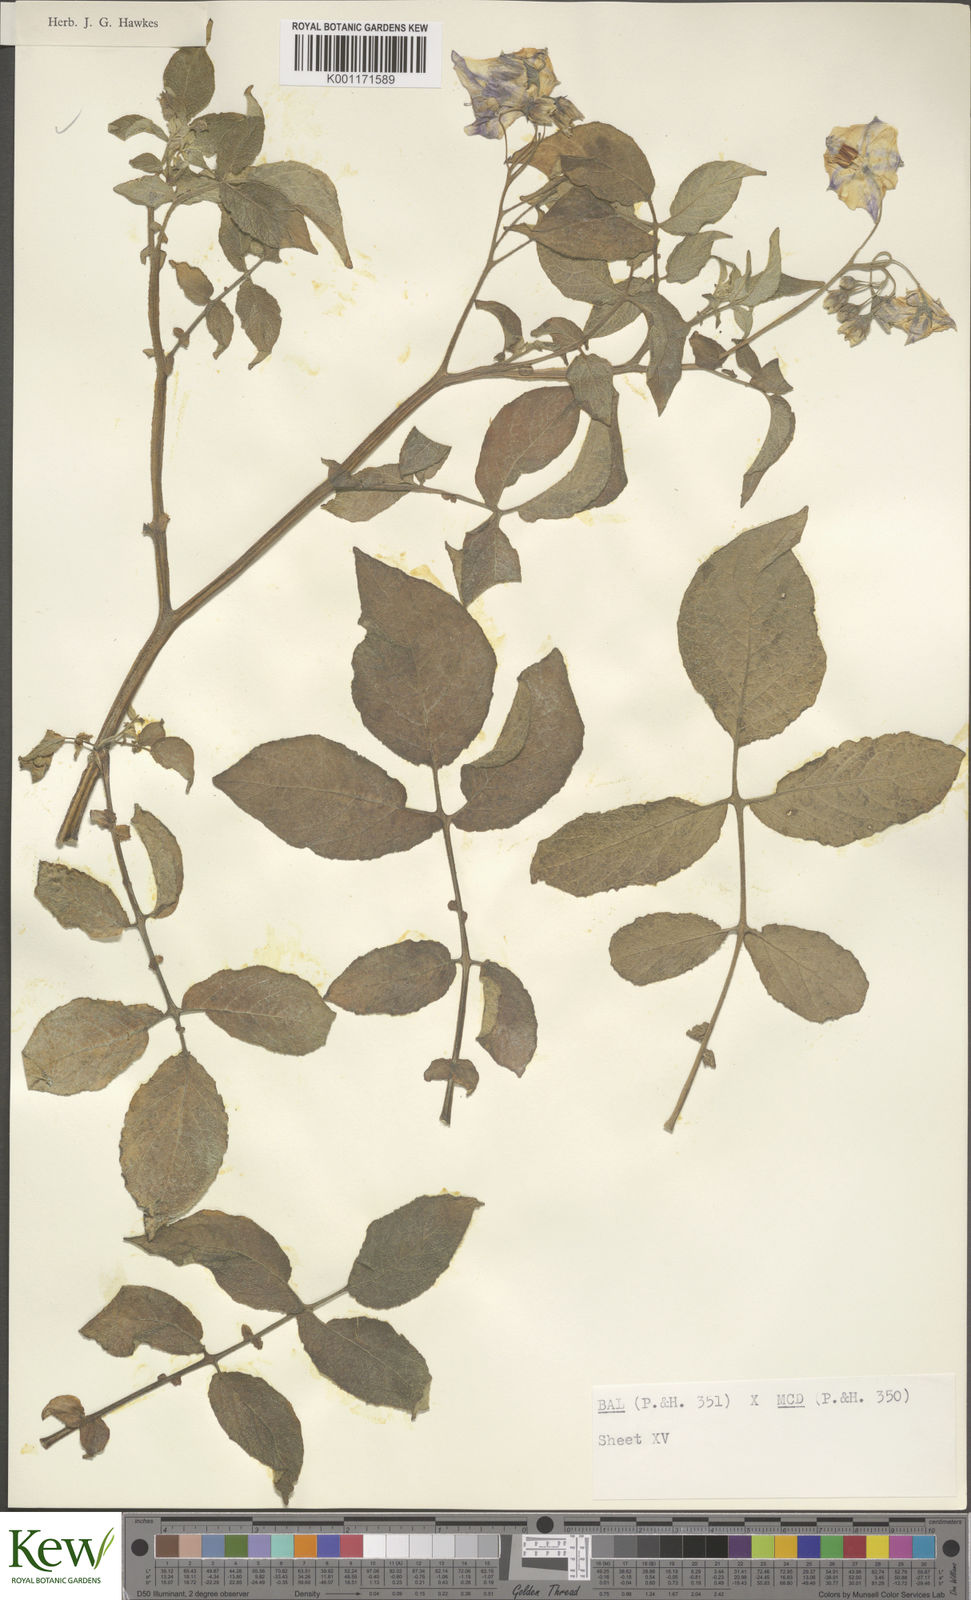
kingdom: Plantae
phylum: Tracheophyta
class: Magnoliopsida
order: Solanales
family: Solanaceae
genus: Solanum
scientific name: Solanum vernei
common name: Purple potato
